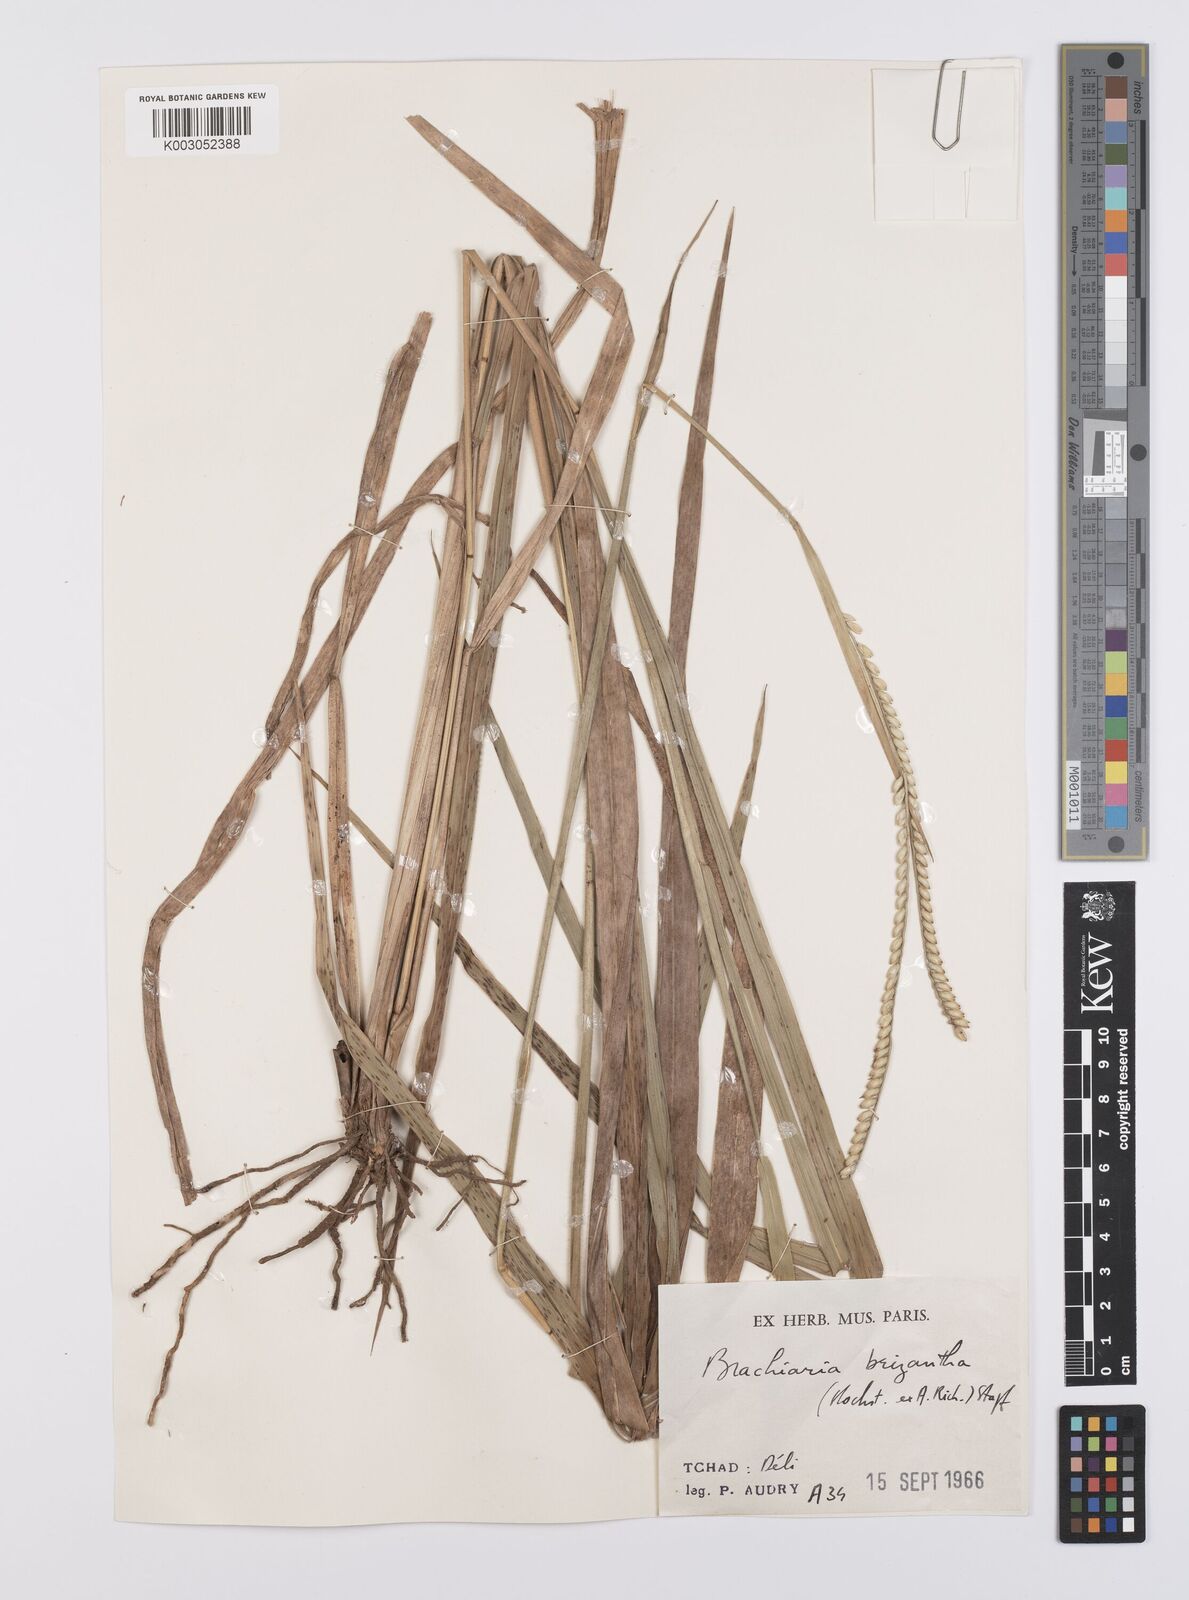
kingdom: Plantae
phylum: Tracheophyta
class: Liliopsida
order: Poales
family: Poaceae
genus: Urochloa
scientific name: Urochloa brizantha
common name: Palisade signalgrass
